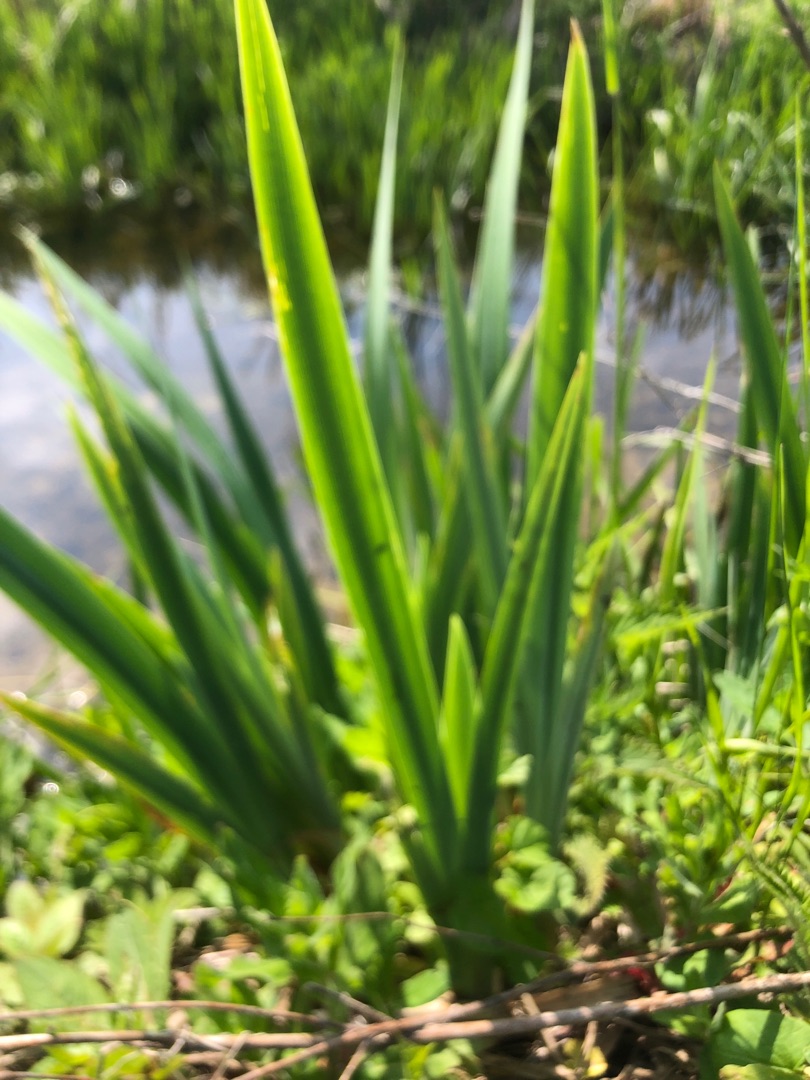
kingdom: Plantae
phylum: Tracheophyta
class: Liliopsida
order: Asparagales
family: Iridaceae
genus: Iris
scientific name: Iris pseudacorus
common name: Gul iris
